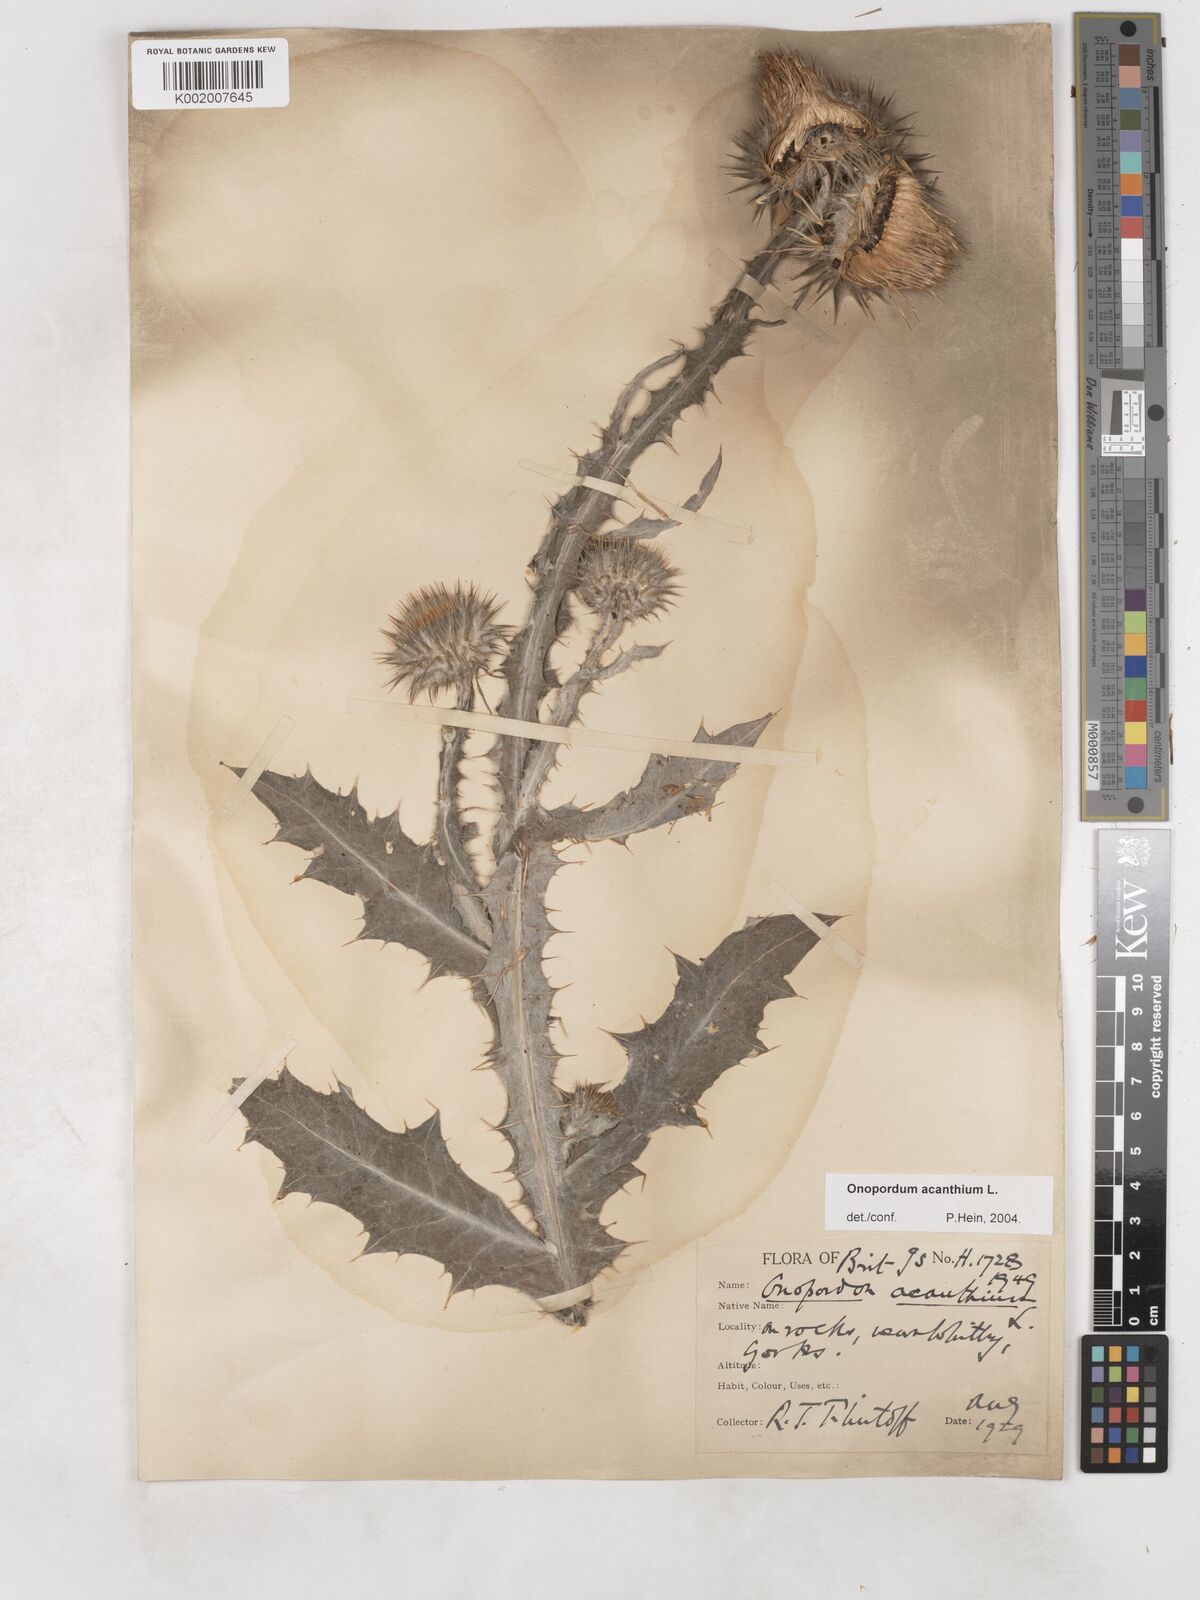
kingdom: Plantae
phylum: Tracheophyta
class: Magnoliopsida
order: Asterales
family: Asteraceae
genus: Onopordum
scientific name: Onopordum acanthium
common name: Scotch thistle
